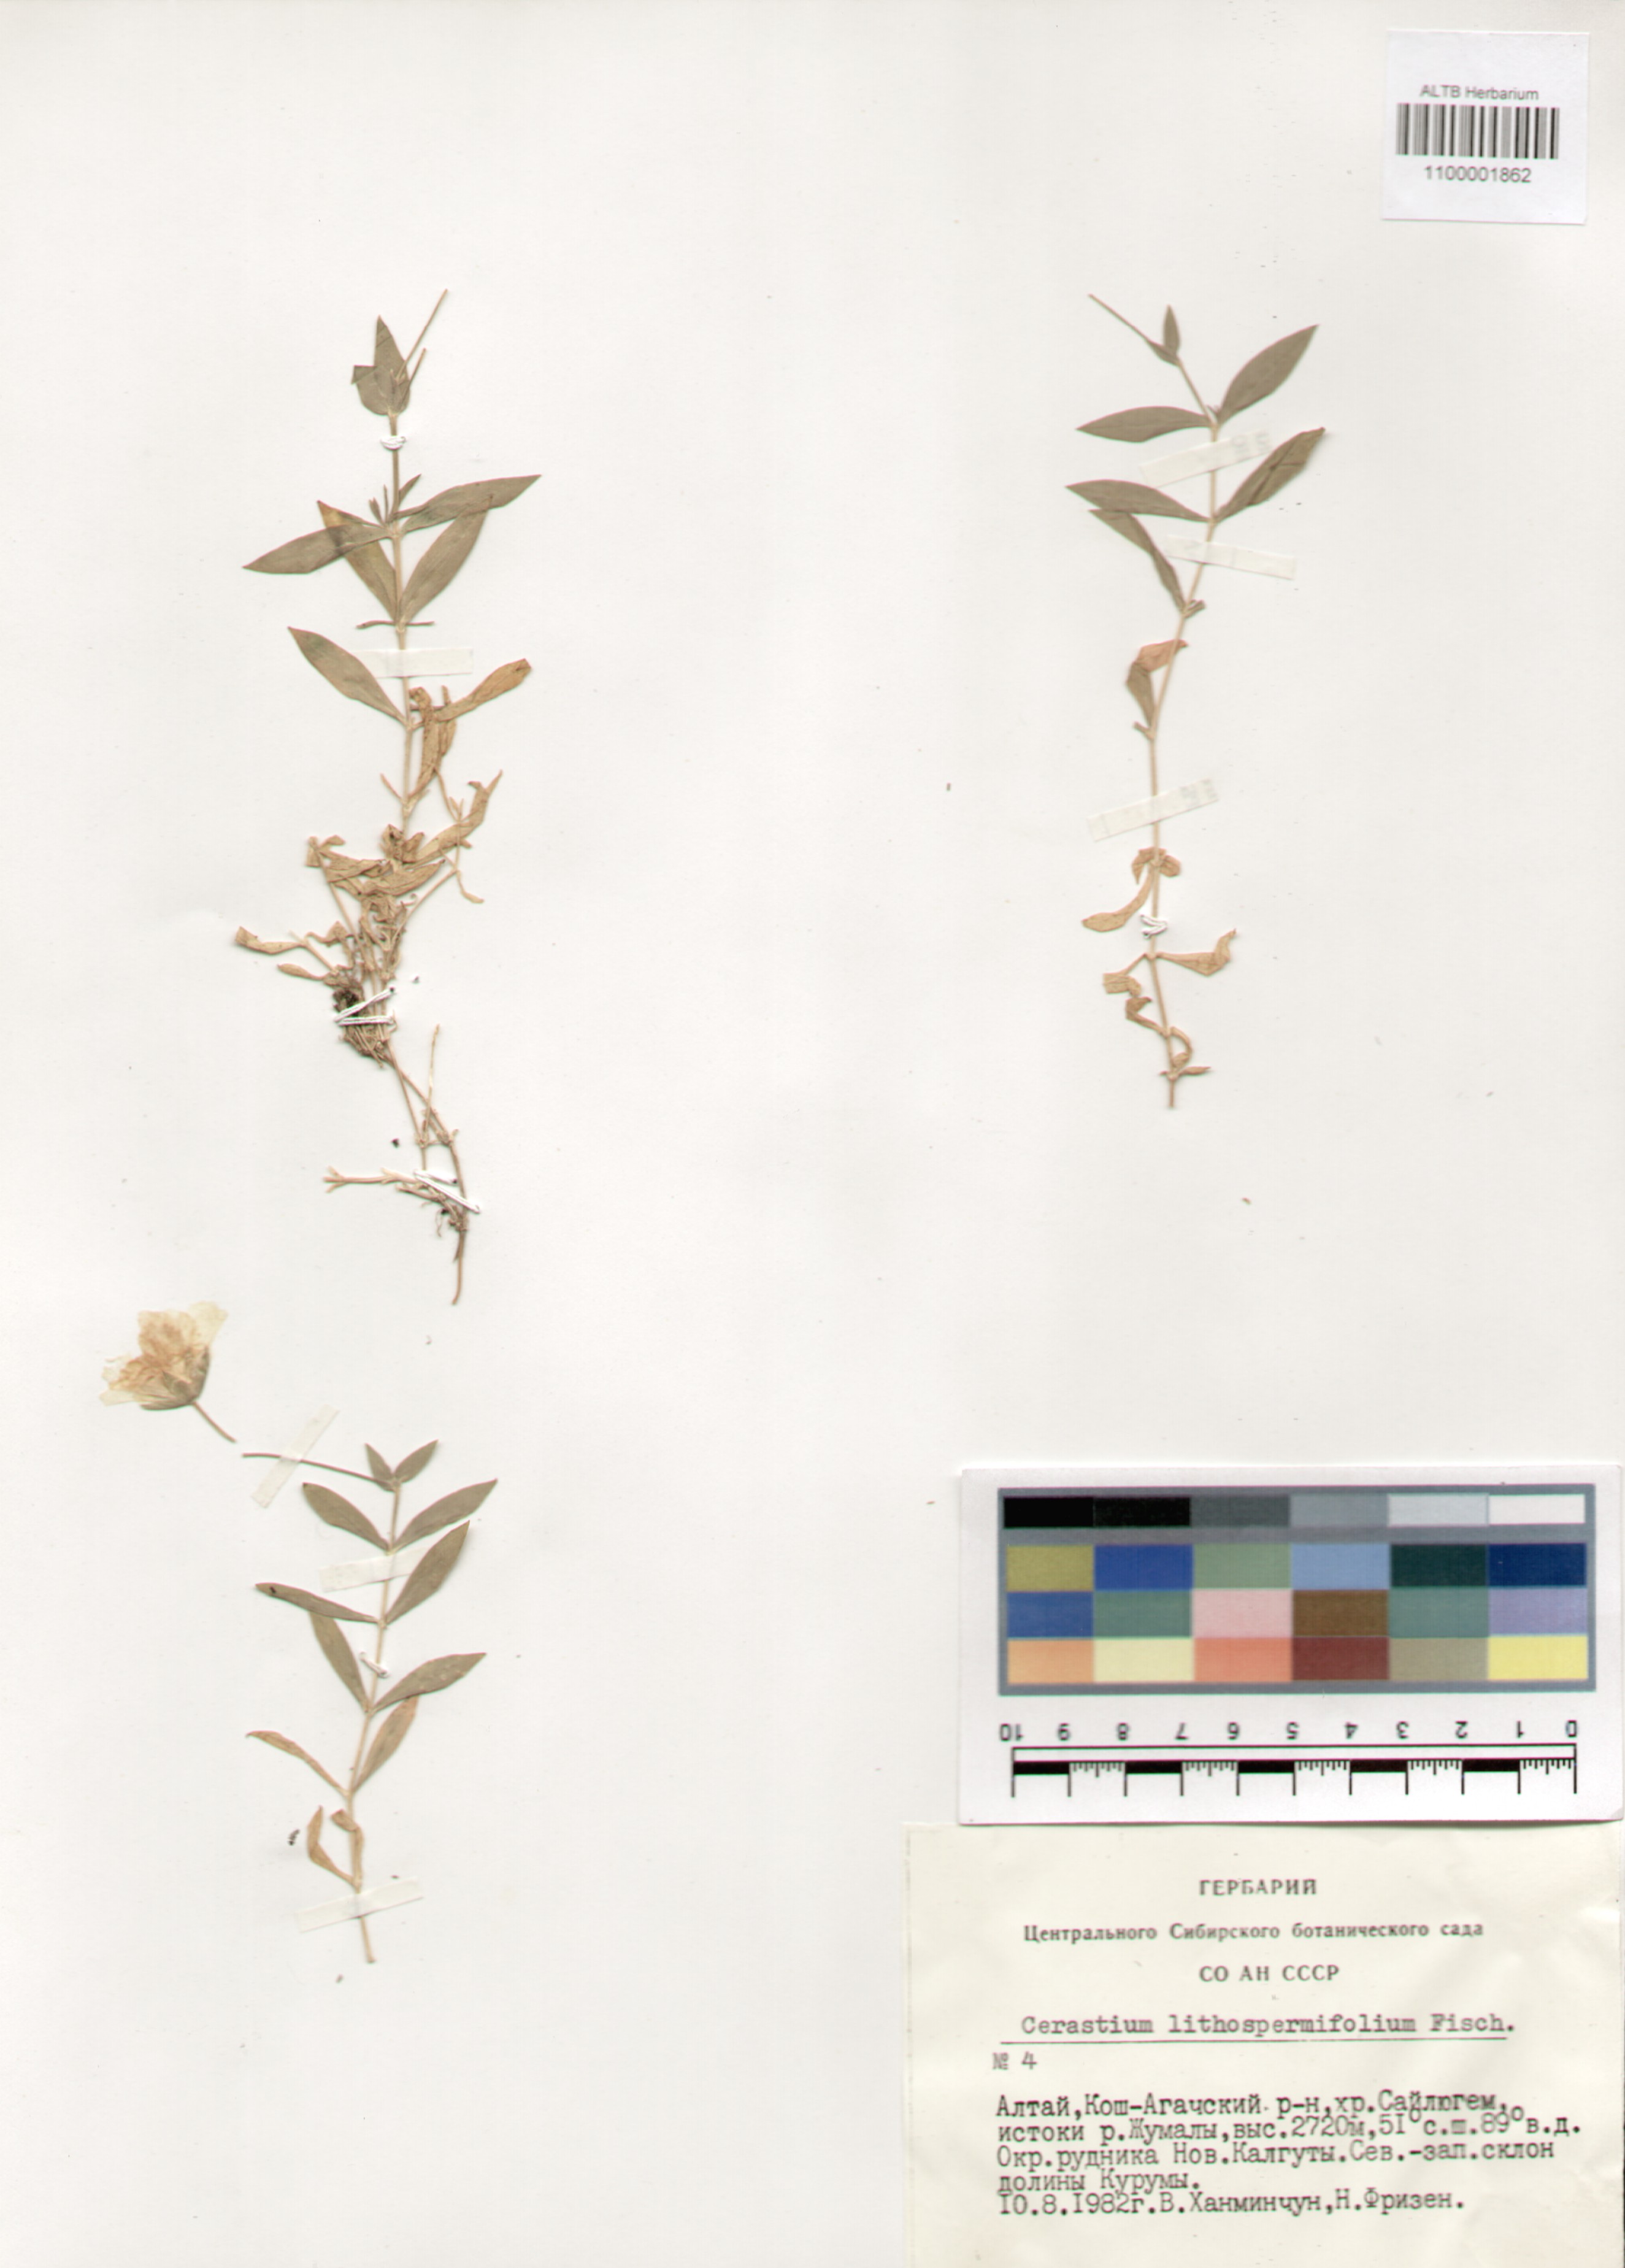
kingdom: Plantae
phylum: Tracheophyta
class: Magnoliopsida
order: Caryophyllales
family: Caryophyllaceae
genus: Cerastium
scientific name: Cerastium lithospermifolium
